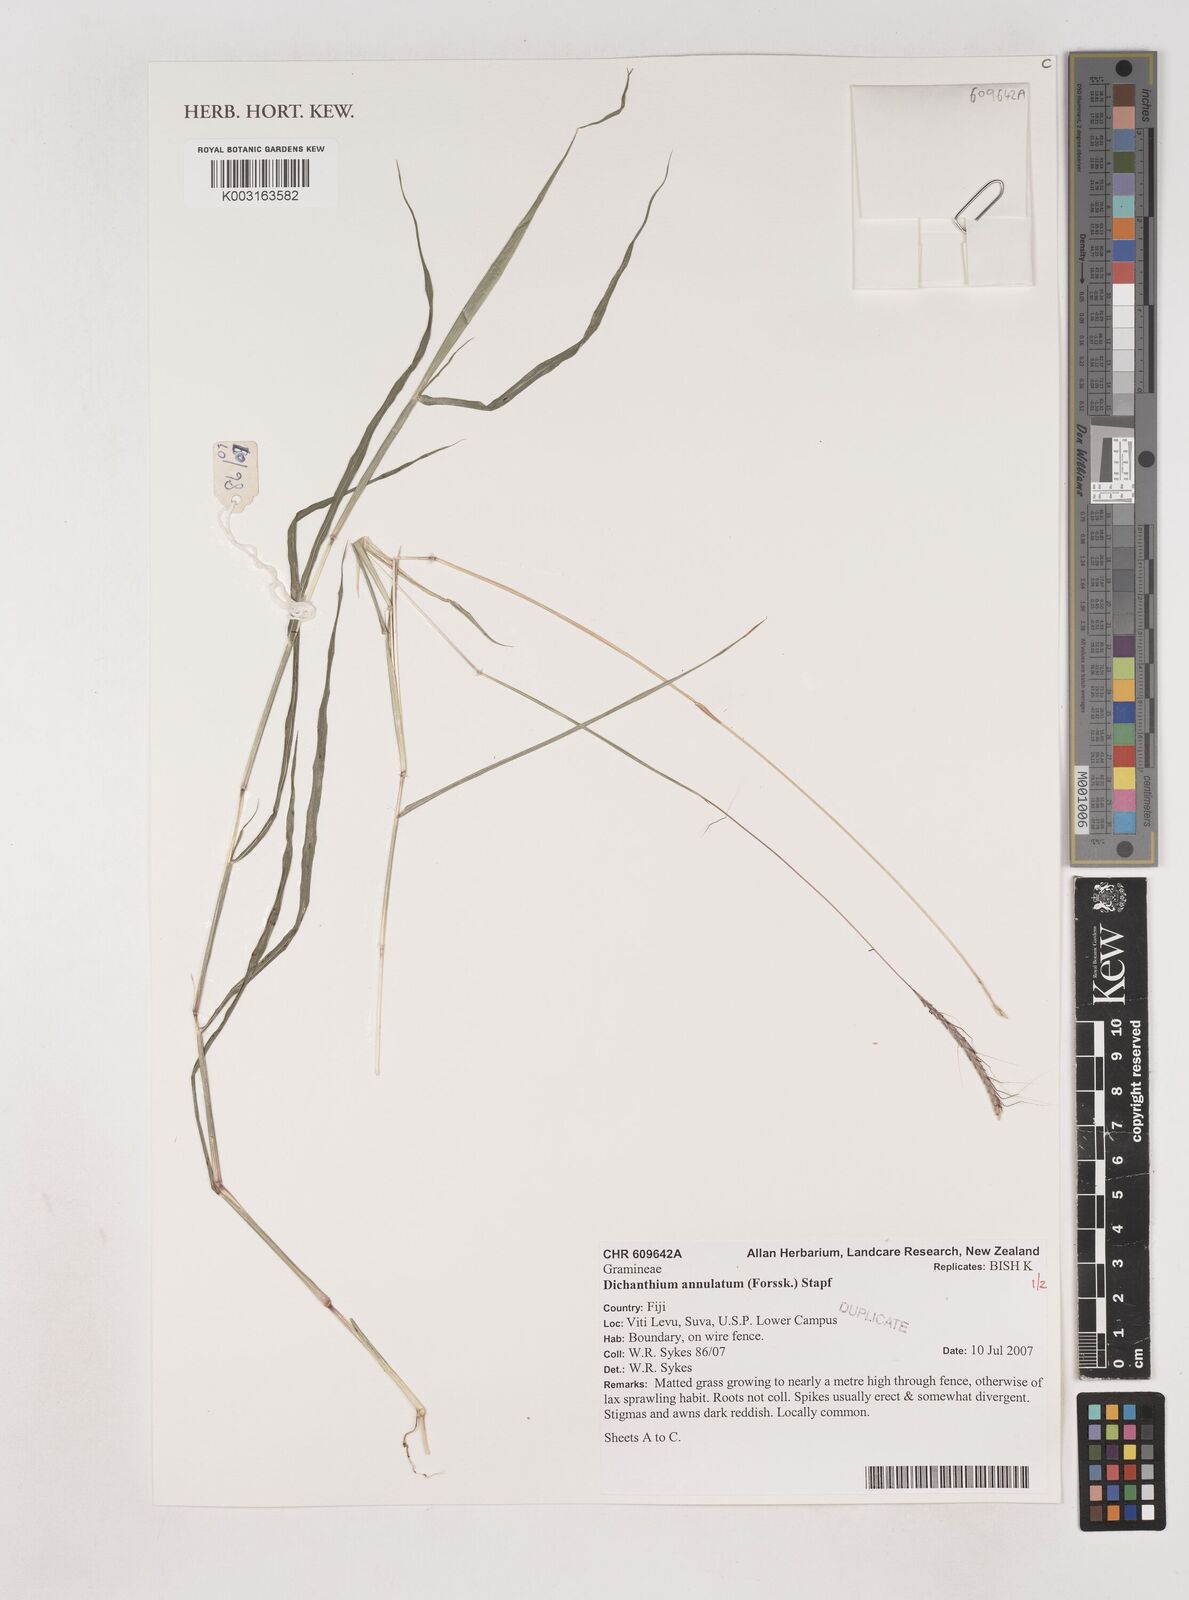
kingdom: Plantae
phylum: Tracheophyta
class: Liliopsida
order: Poales
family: Poaceae
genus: Dichanthium
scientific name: Dichanthium annulatum
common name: Kleberg's bluestem
